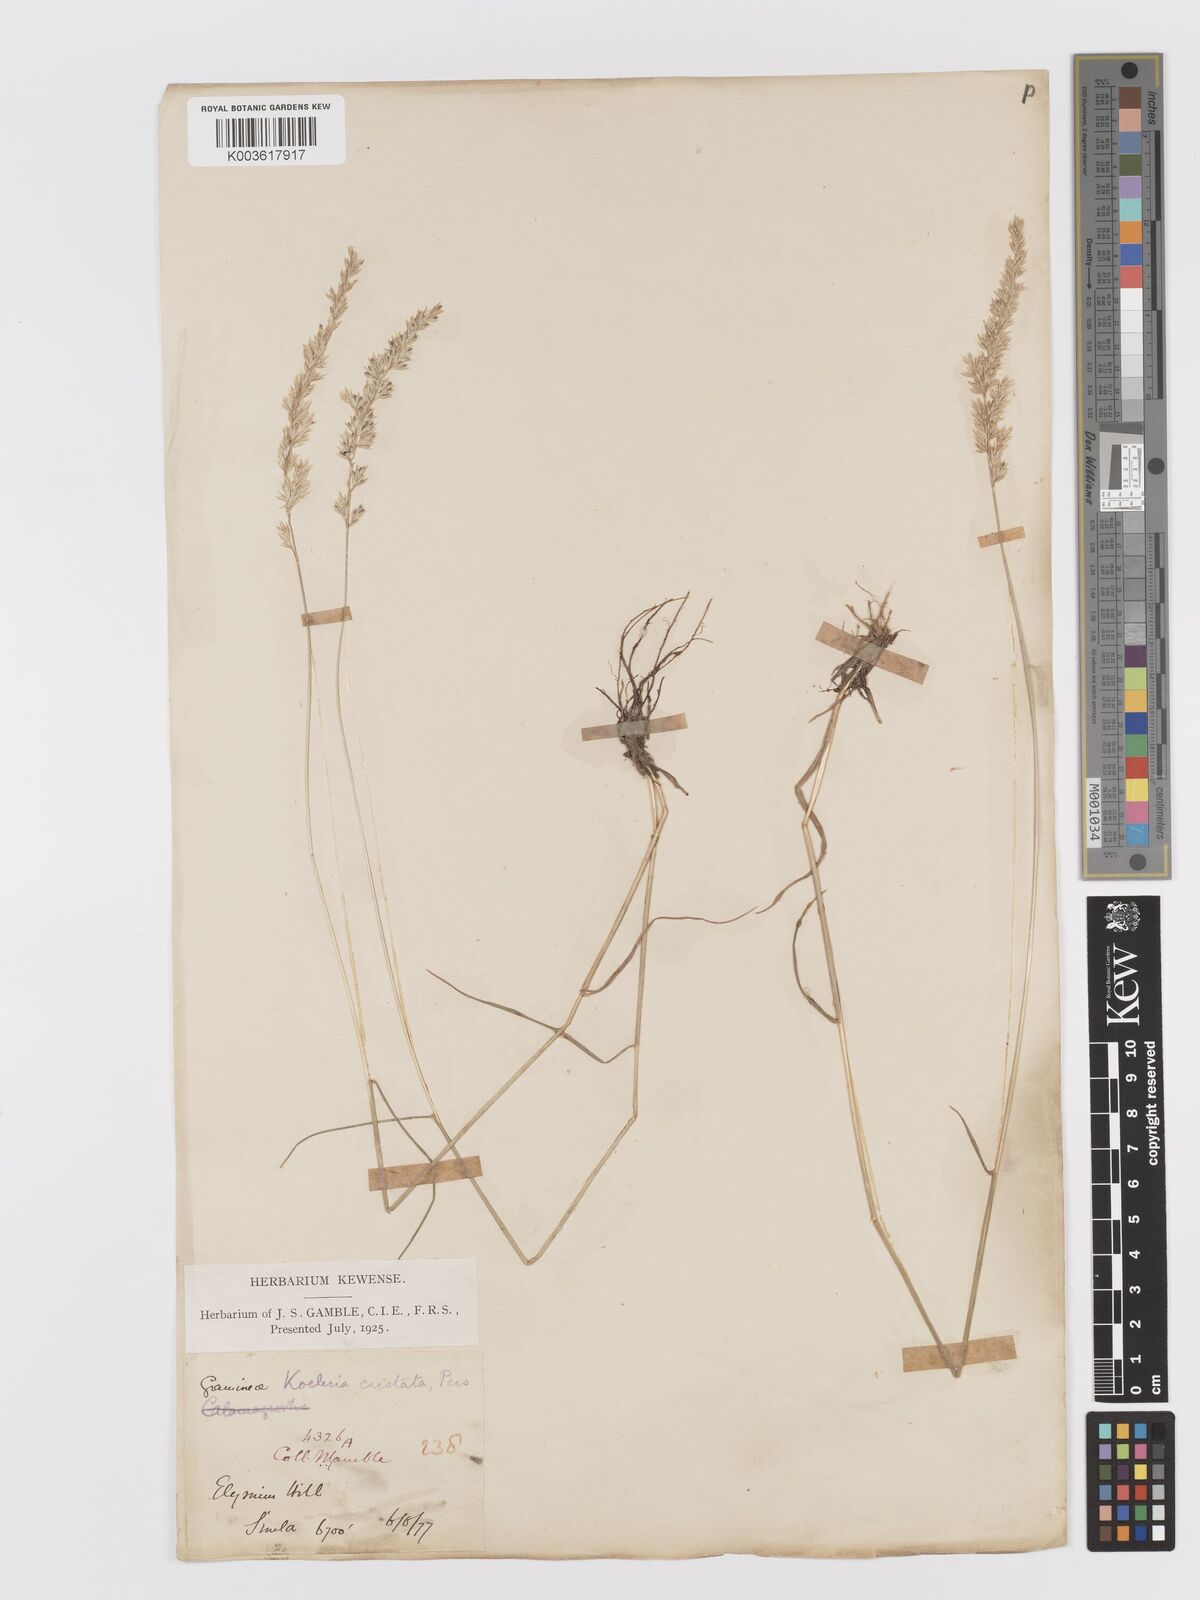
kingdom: Plantae
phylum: Tracheophyta
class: Liliopsida
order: Poales
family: Poaceae
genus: Koeleria
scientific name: Koeleria
